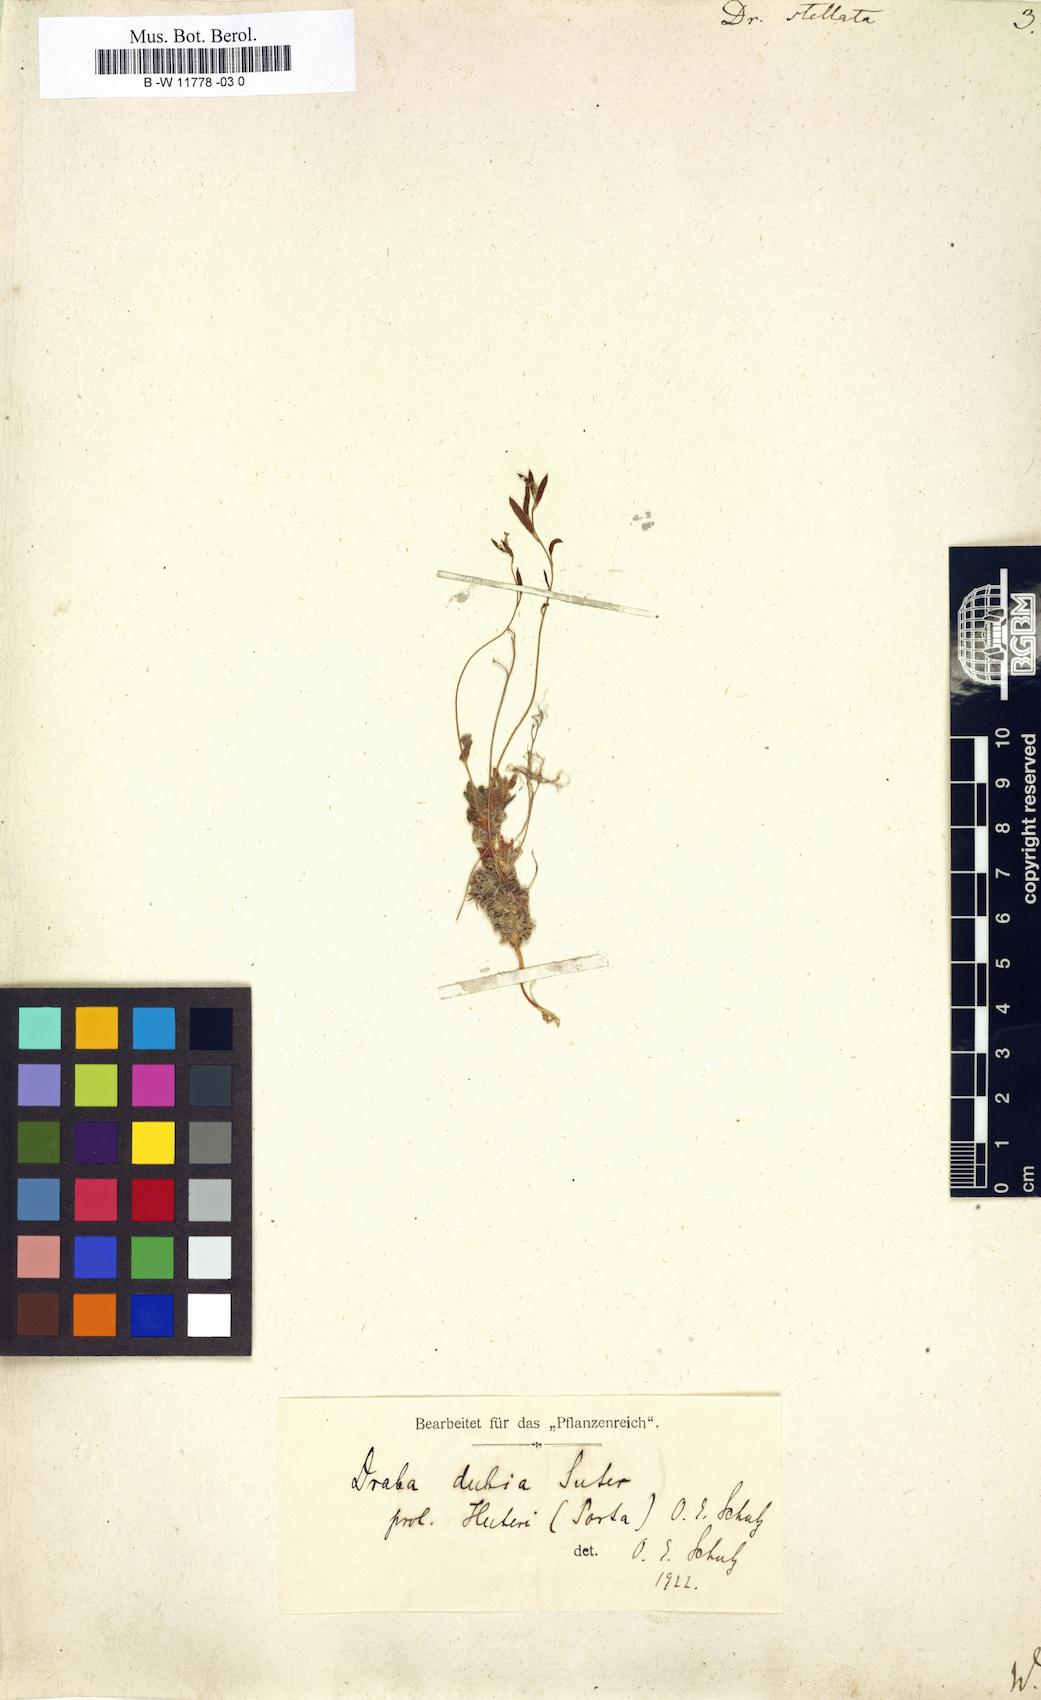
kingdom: Plantae
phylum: Tracheophyta
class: Magnoliopsida
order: Brassicales
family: Brassicaceae
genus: Draba
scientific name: Draba stellata
